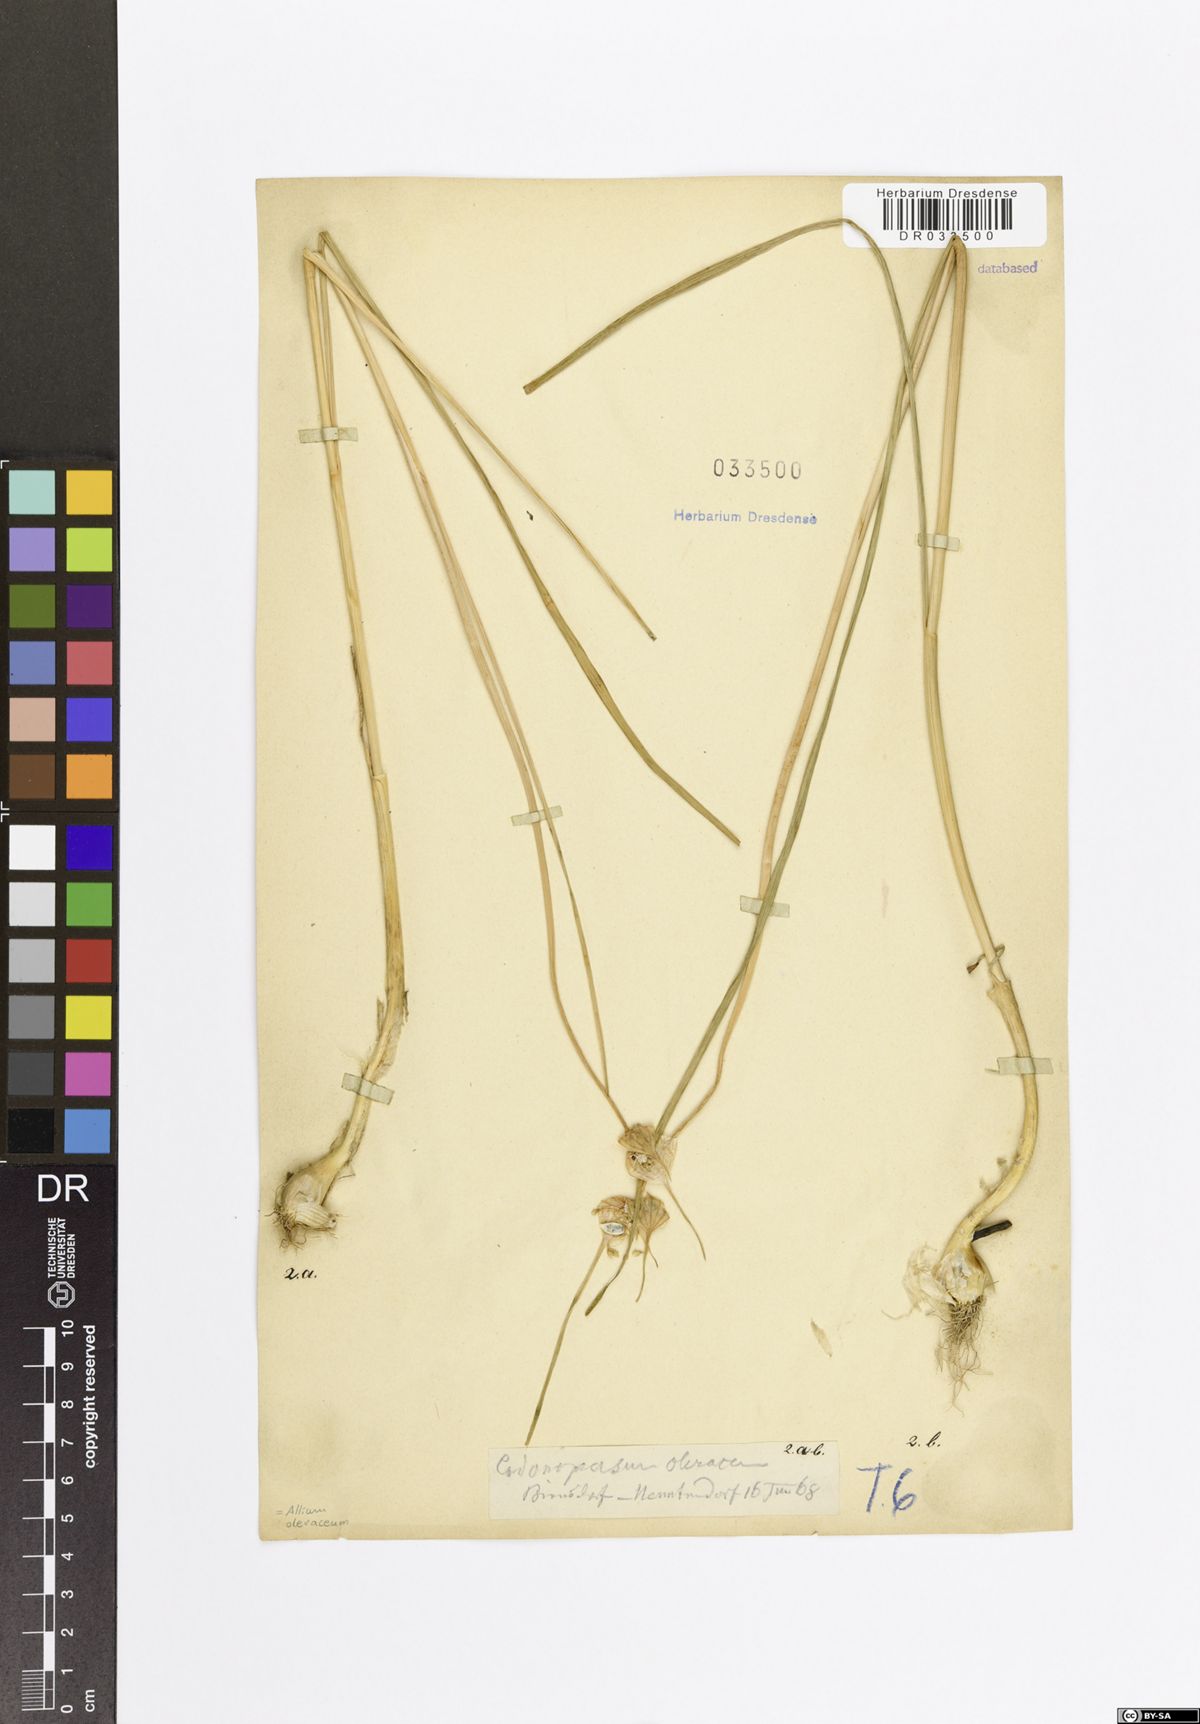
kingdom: Plantae
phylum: Tracheophyta
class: Liliopsida
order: Asparagales
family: Amaryllidaceae
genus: Allium
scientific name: Allium oleraceum
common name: Field garlic
